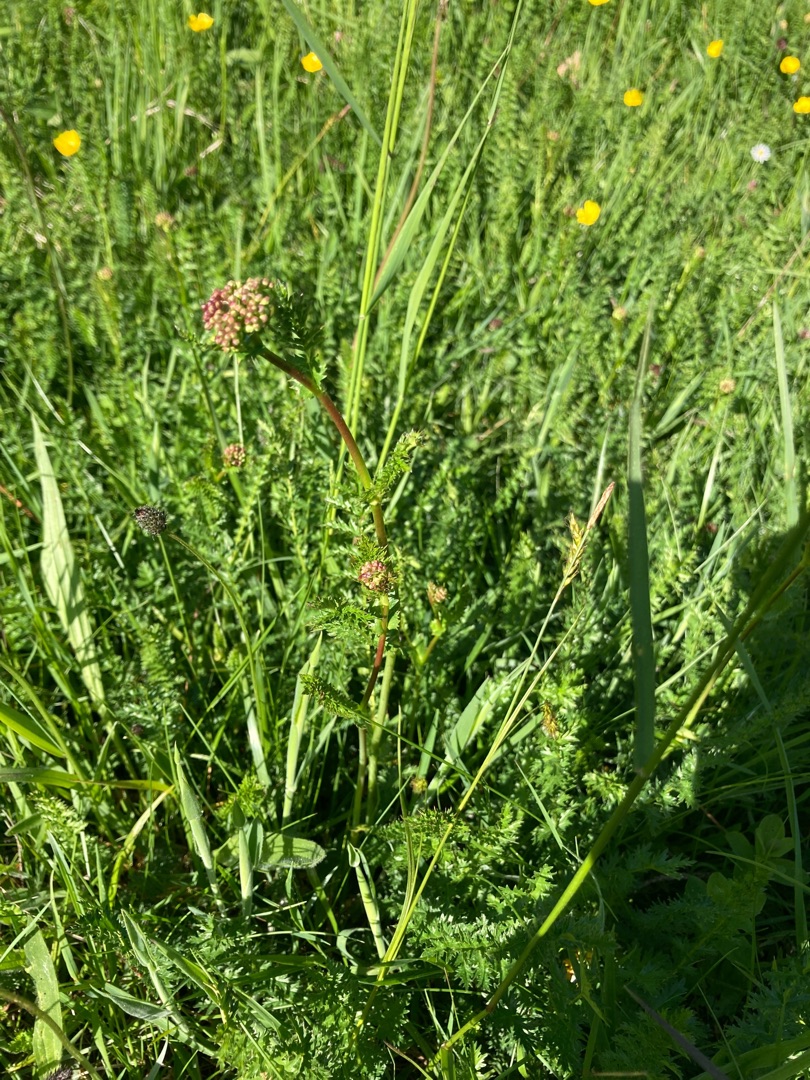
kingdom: Plantae
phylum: Tracheophyta
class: Magnoliopsida
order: Rosales
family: Rosaceae
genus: Filipendula
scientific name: Filipendula vulgaris
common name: Knoldet mjødurt
